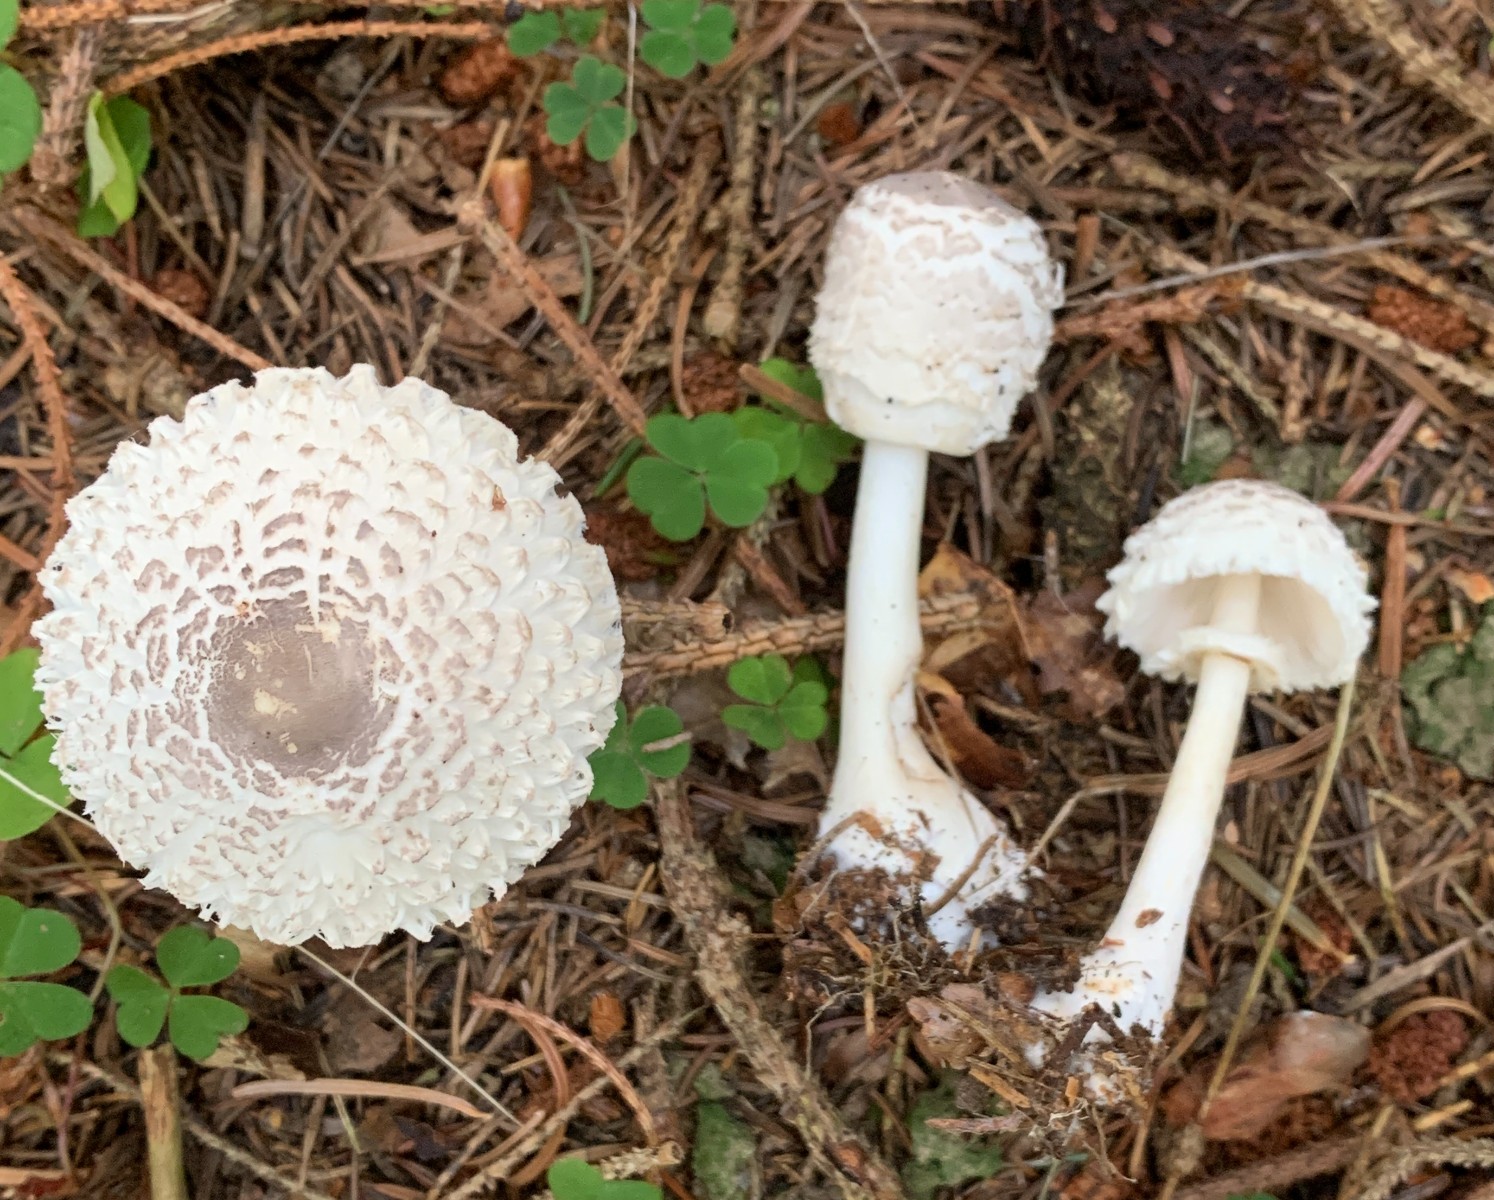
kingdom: Fungi
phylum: Basidiomycota
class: Agaricomycetes
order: Agaricales
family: Agaricaceae
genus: Leucoagaricus
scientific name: Leucoagaricus nympharum
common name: gran-silkehat
